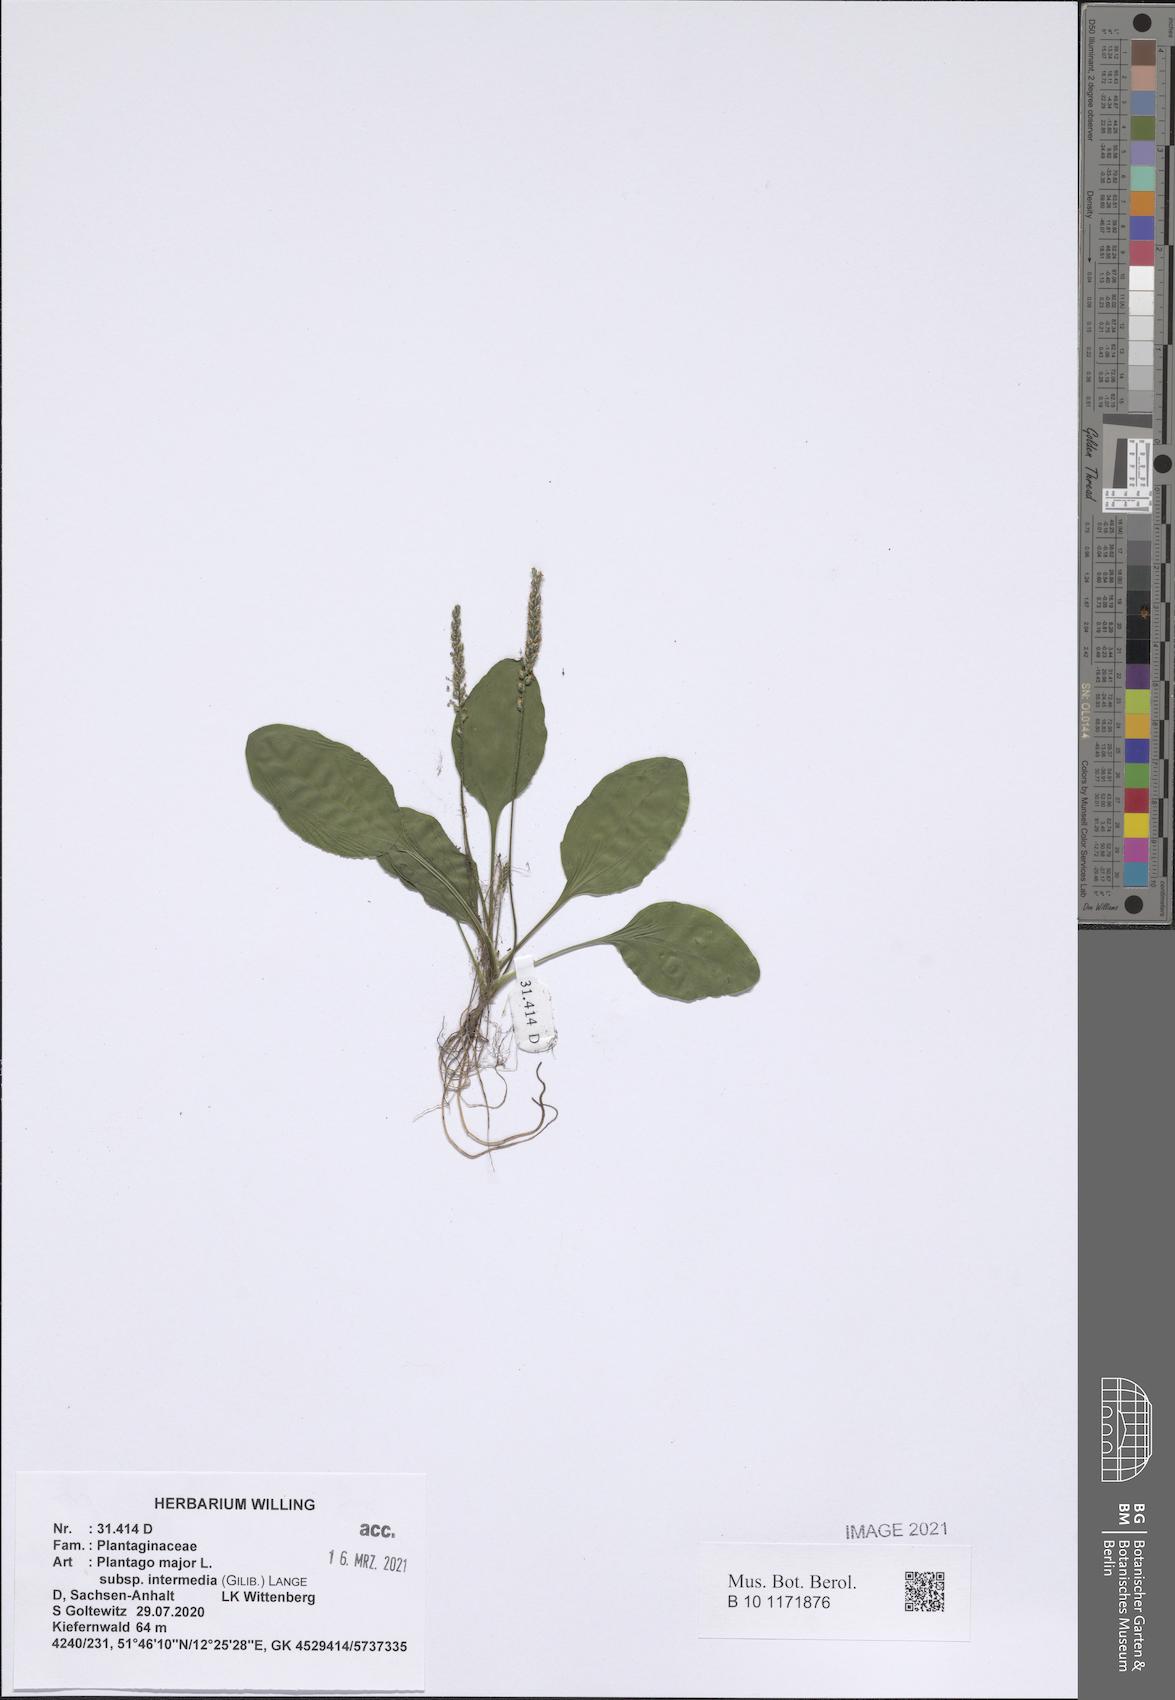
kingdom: Plantae
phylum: Tracheophyta
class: Magnoliopsida
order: Lamiales
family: Plantaginaceae
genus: Plantago
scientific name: Plantago uliginosa
